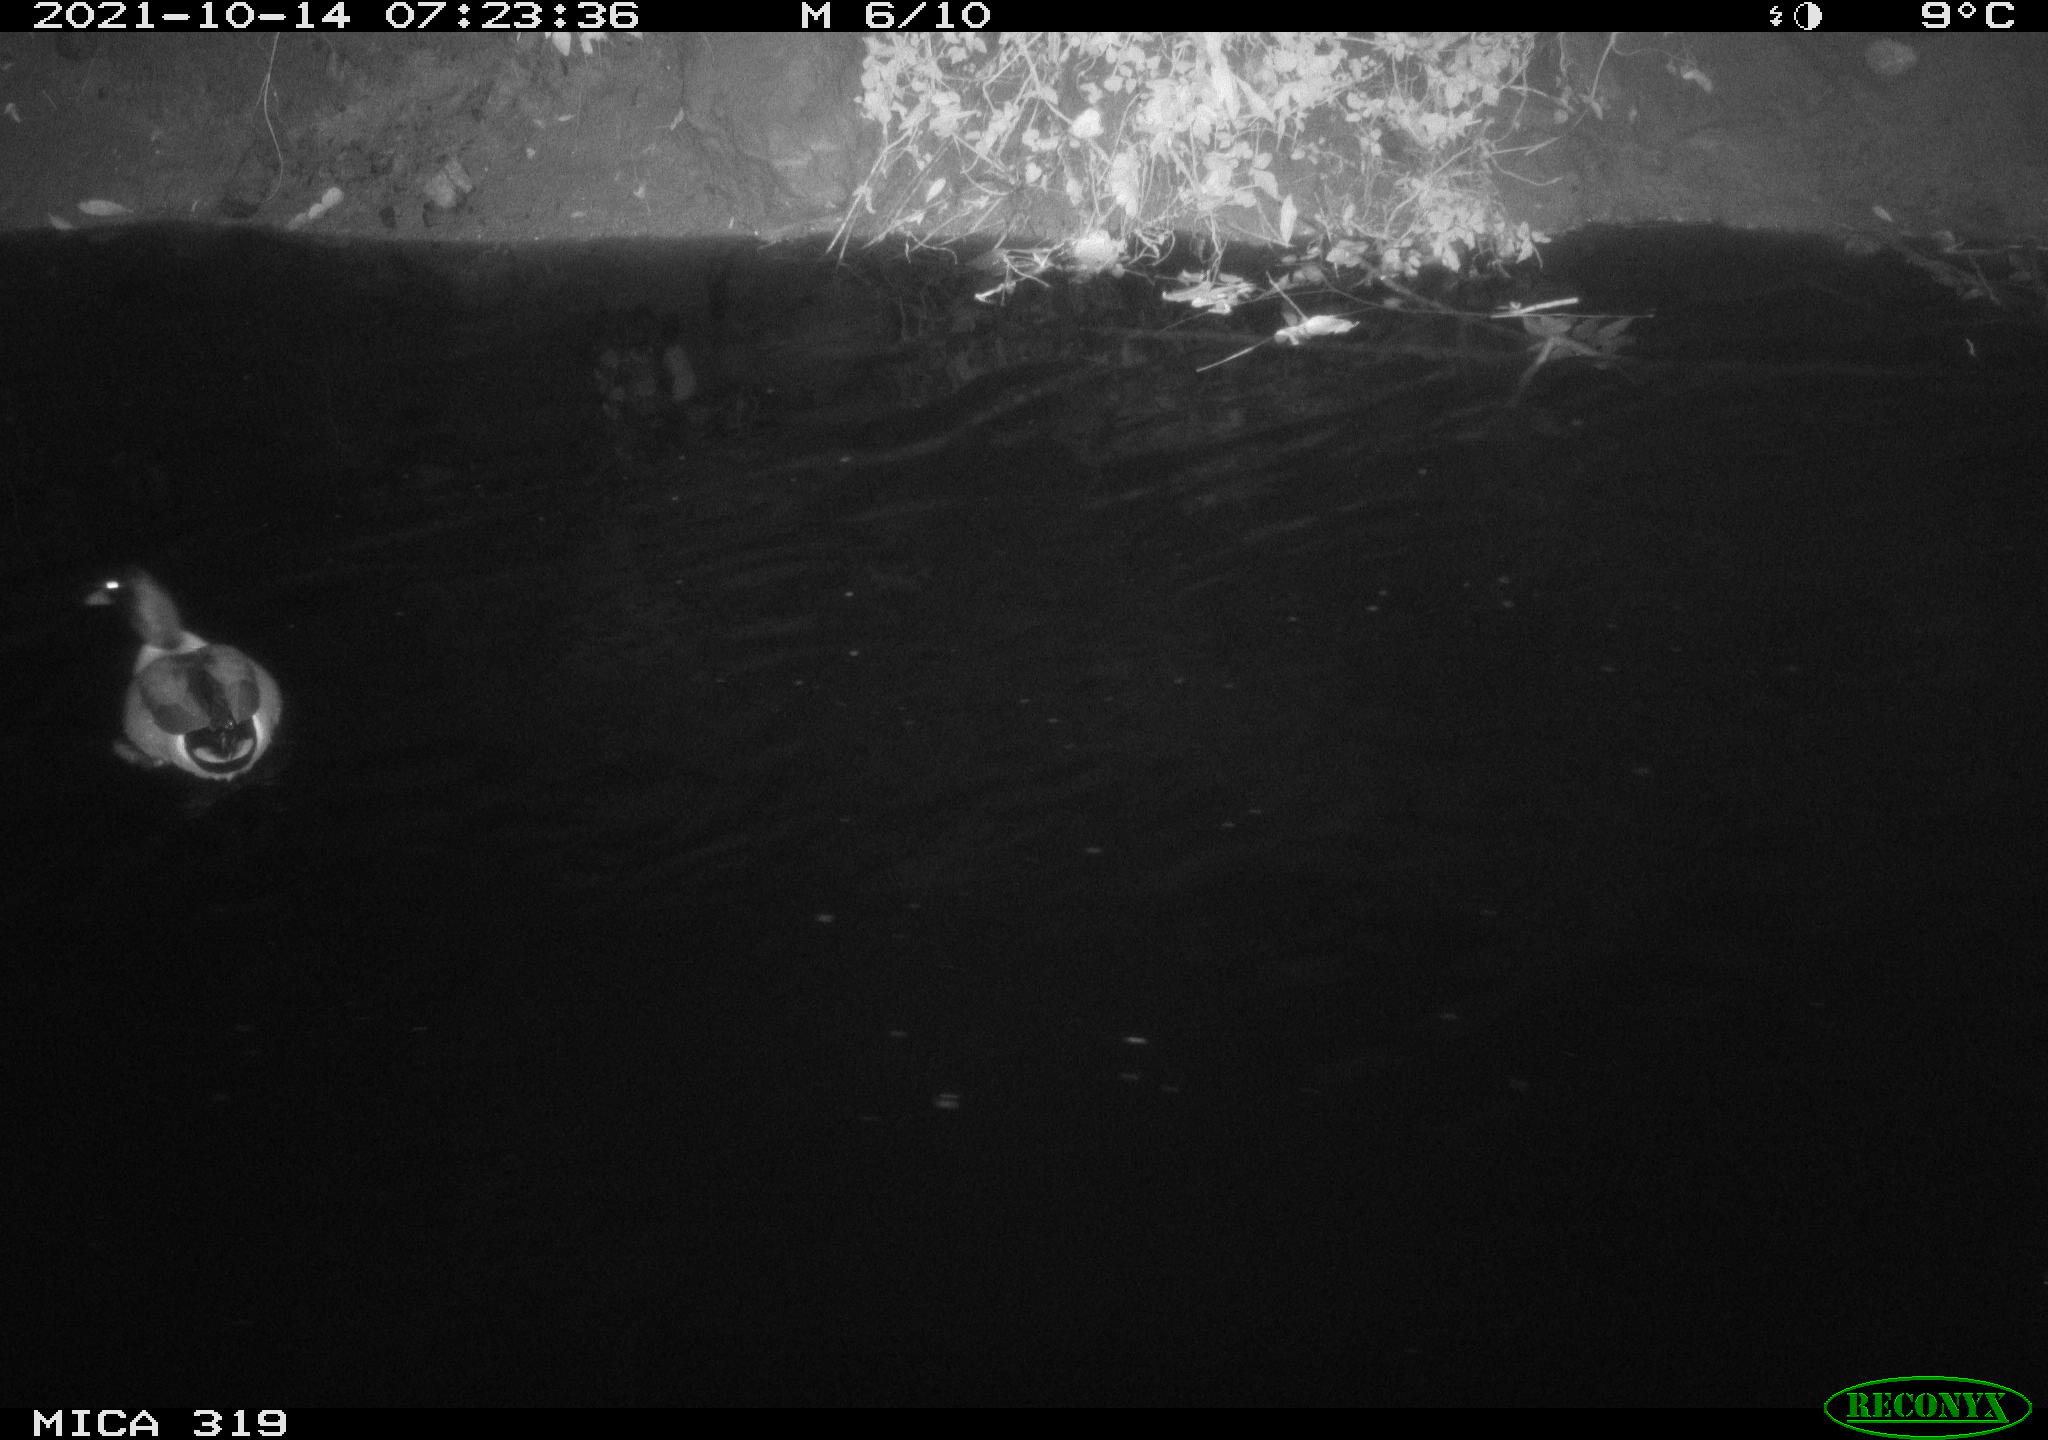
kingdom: Animalia
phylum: Chordata
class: Aves
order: Anseriformes
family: Anatidae
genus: Anas
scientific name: Anas platyrhynchos
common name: Mallard
